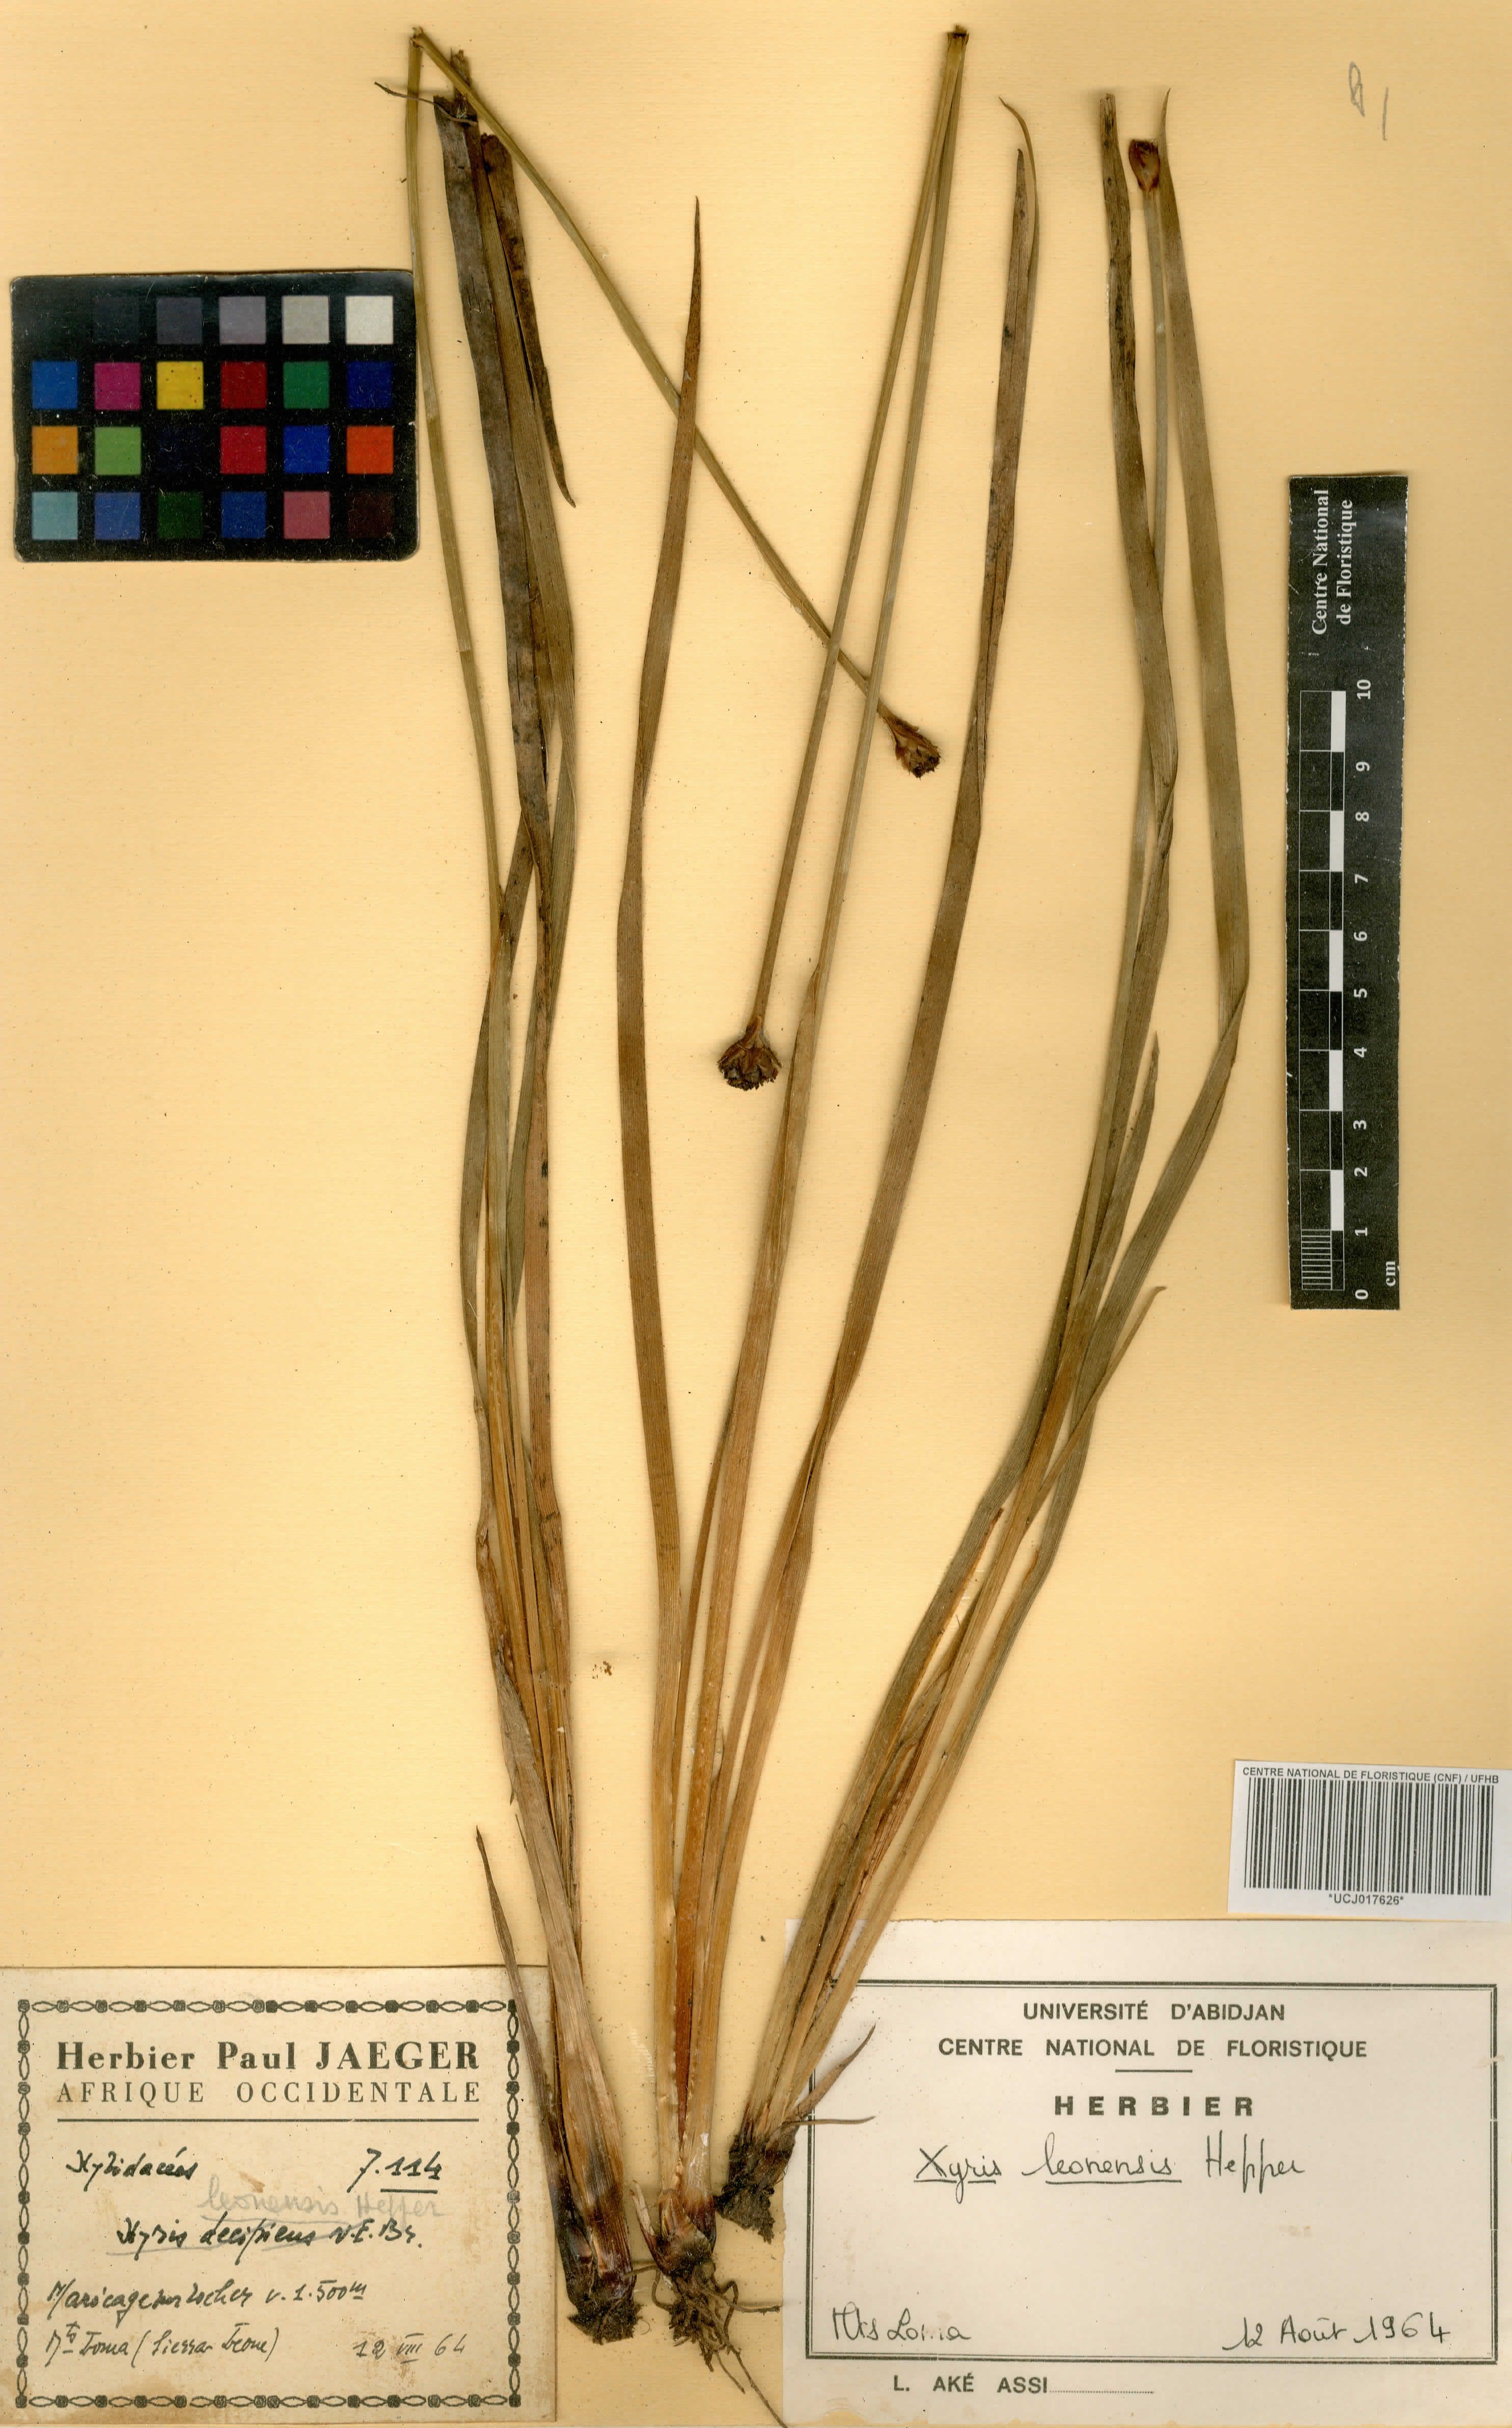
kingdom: Plantae
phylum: Tracheophyta
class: Liliopsida
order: Poales
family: Xyridaceae
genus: Xyris
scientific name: Xyris leonensis
